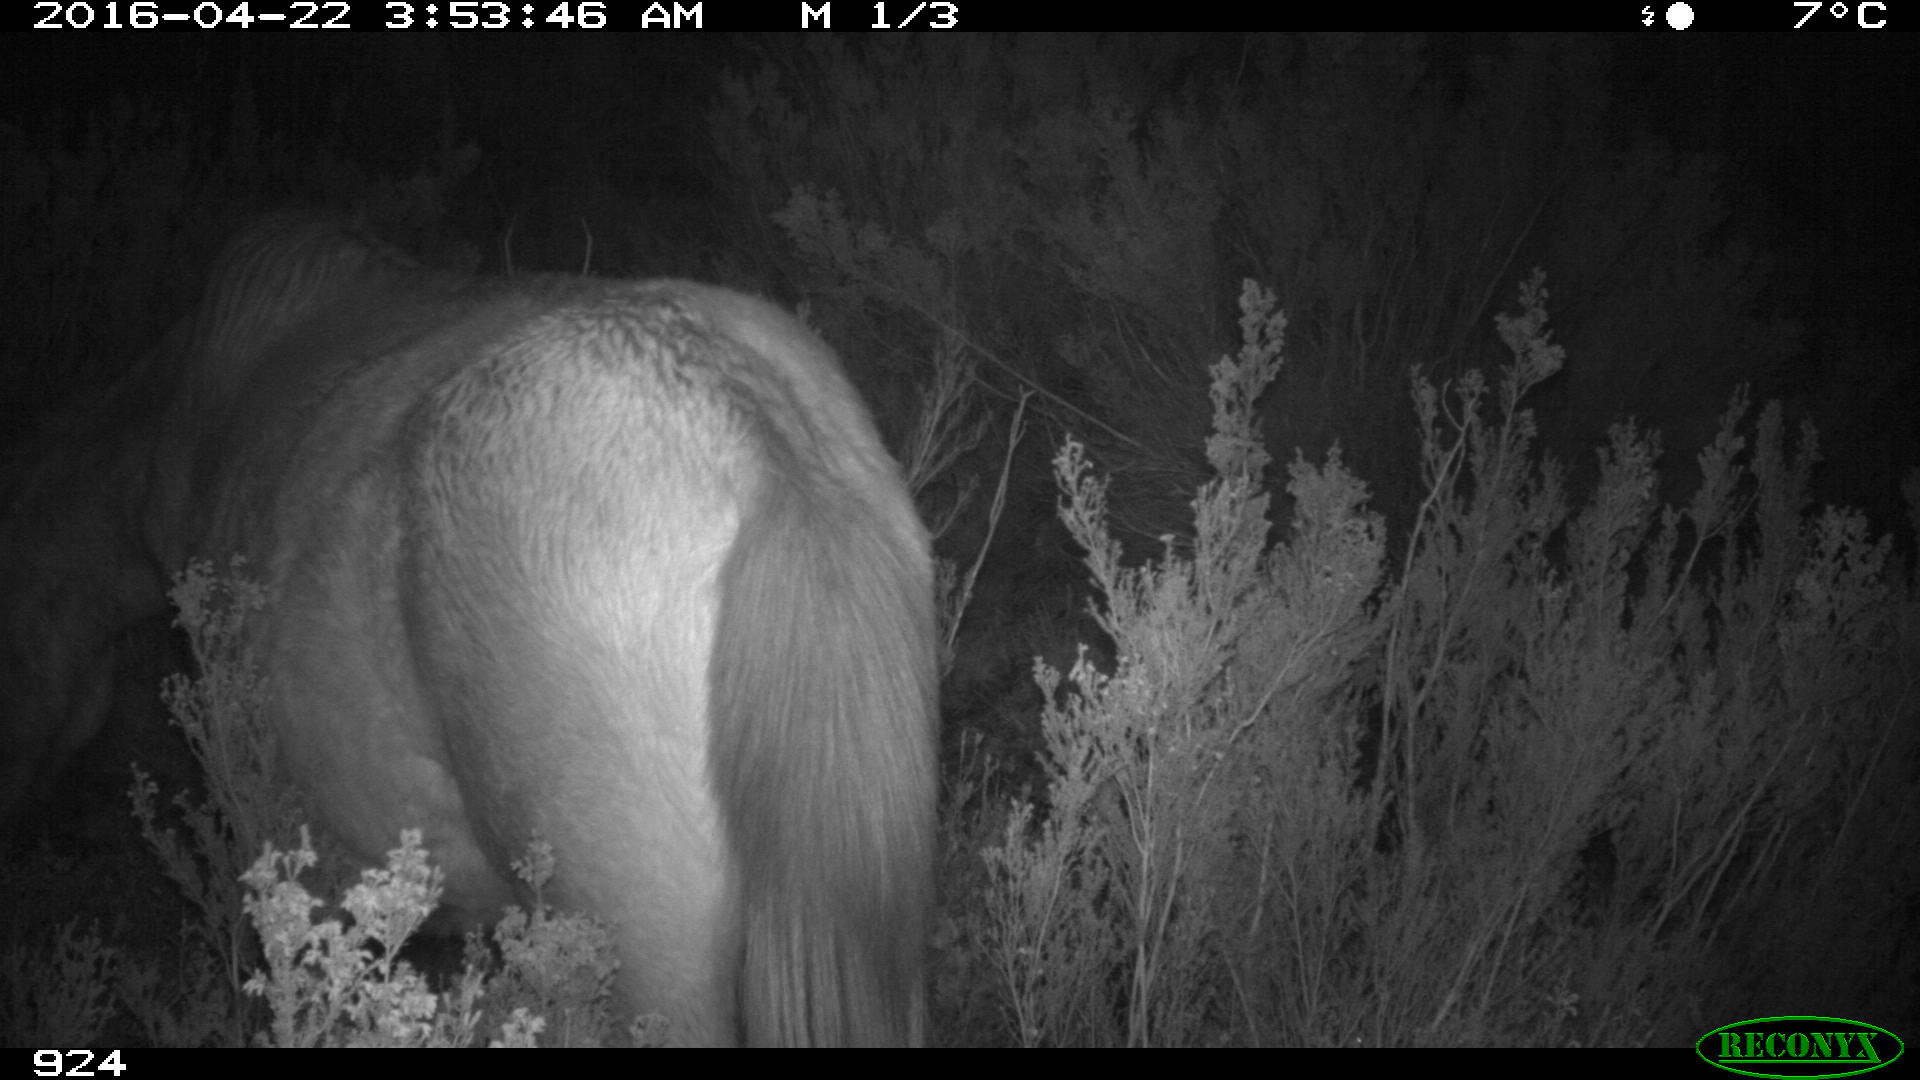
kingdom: Animalia
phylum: Chordata
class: Mammalia
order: Perissodactyla
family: Equidae
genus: Equus
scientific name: Equus caballus
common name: Horse
